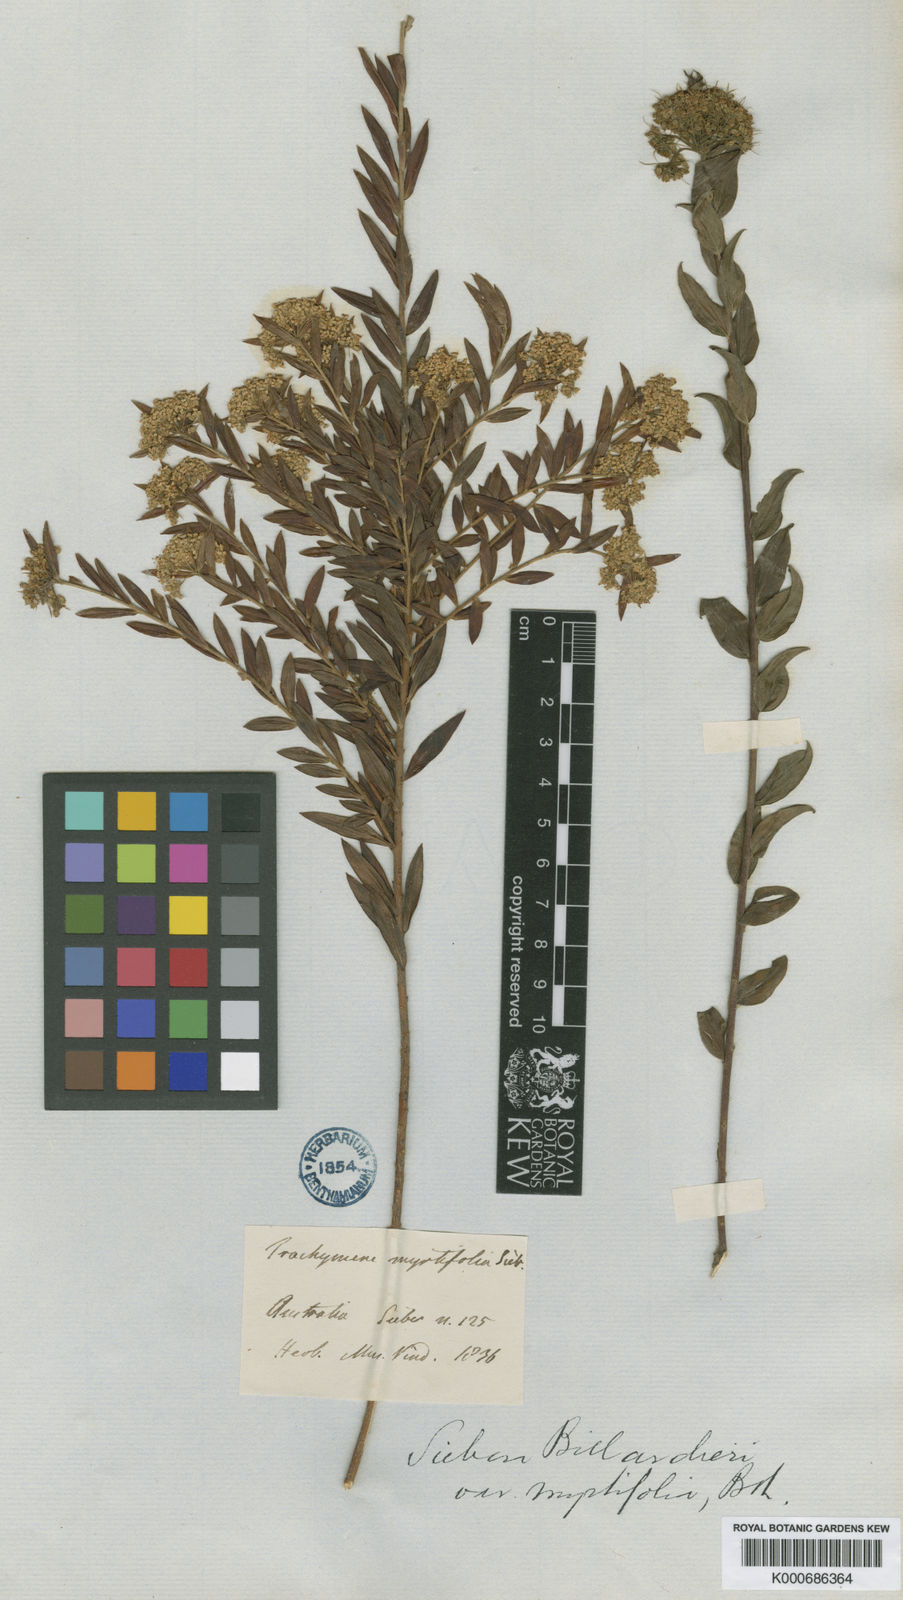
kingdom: Plantae
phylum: Tracheophyta
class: Magnoliopsida
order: Apiales
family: Apiaceae
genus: Platysace
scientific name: Platysace lanceolata
